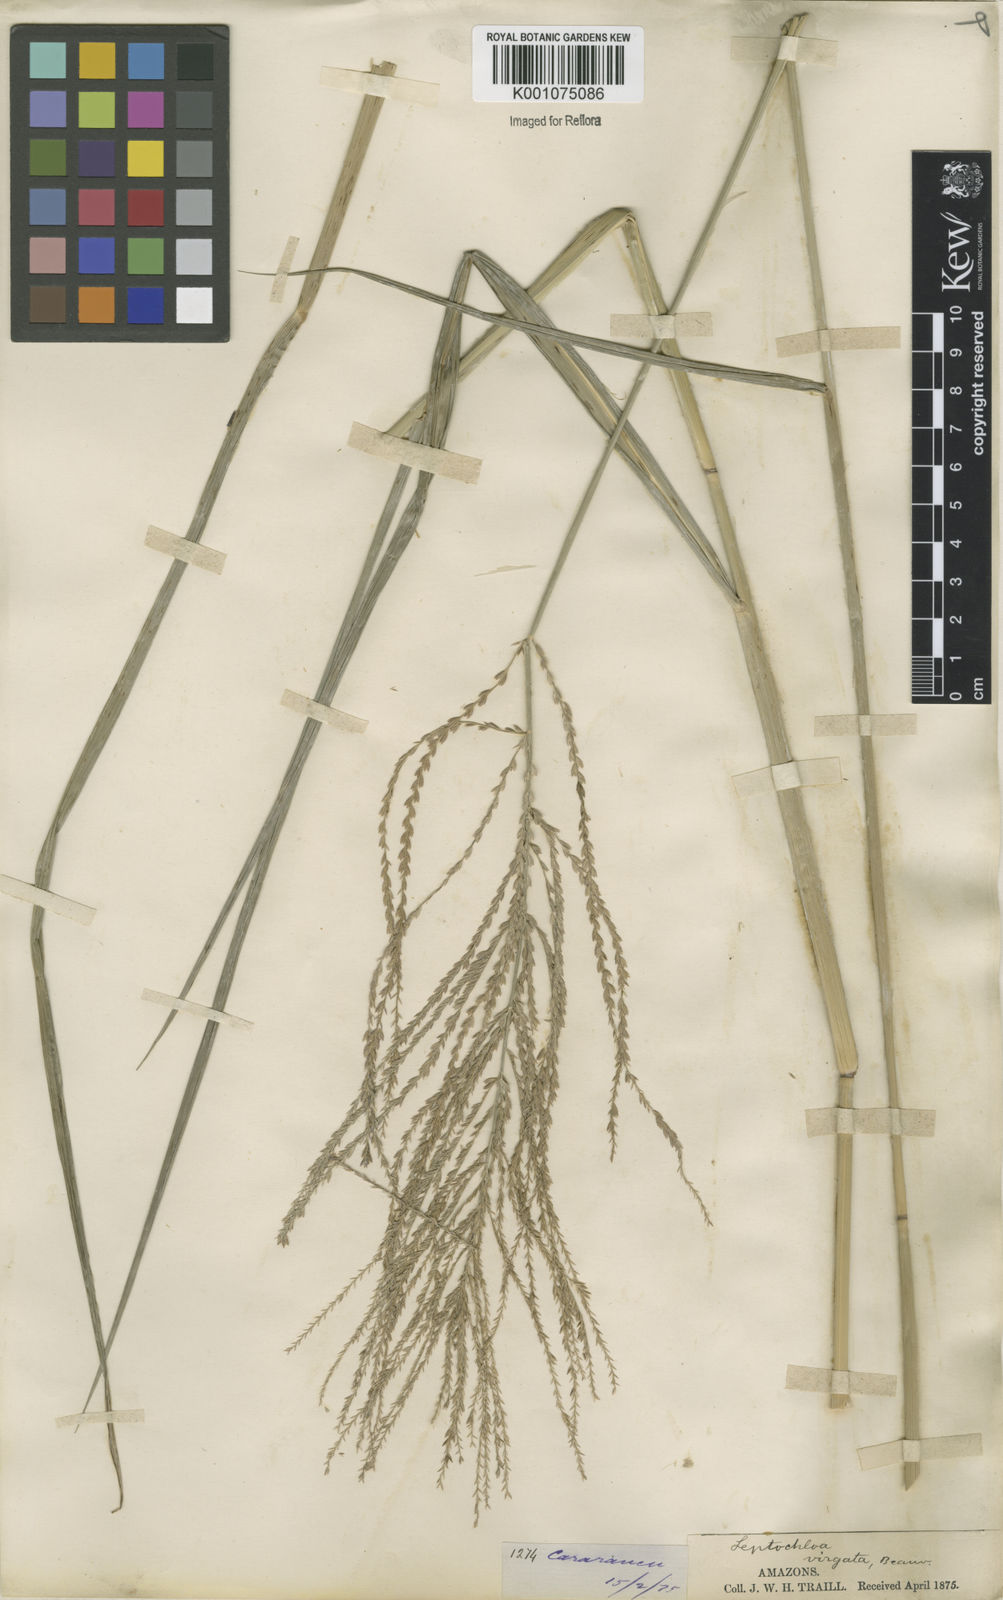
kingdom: Plantae
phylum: Tracheophyta
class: Liliopsida
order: Poales
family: Poaceae
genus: Leptochloa
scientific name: Leptochloa virgata
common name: Tropical sprangletop
